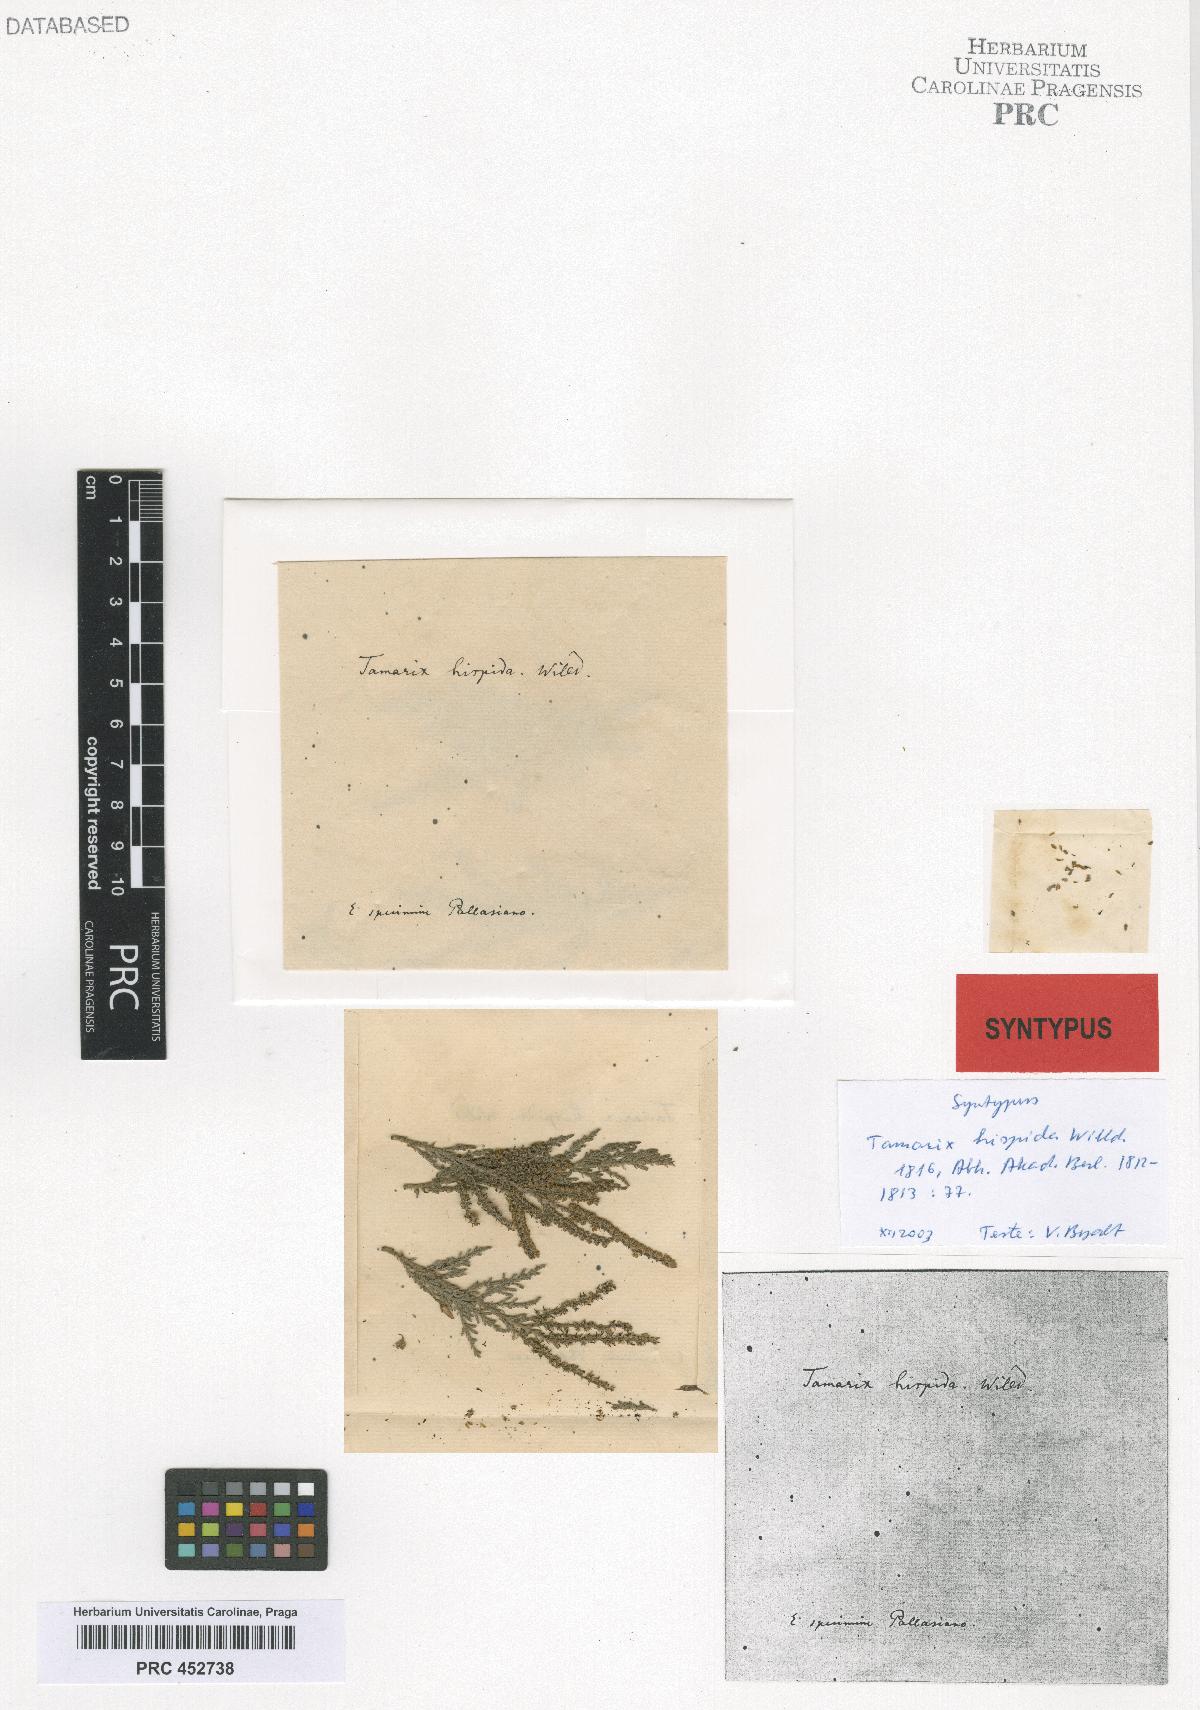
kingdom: Plantae
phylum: Tracheophyta
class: Magnoliopsida
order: Caryophyllales
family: Tamaricaceae
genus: Tamarix
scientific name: Tamarix hispida
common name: Kashgar tamarisk
